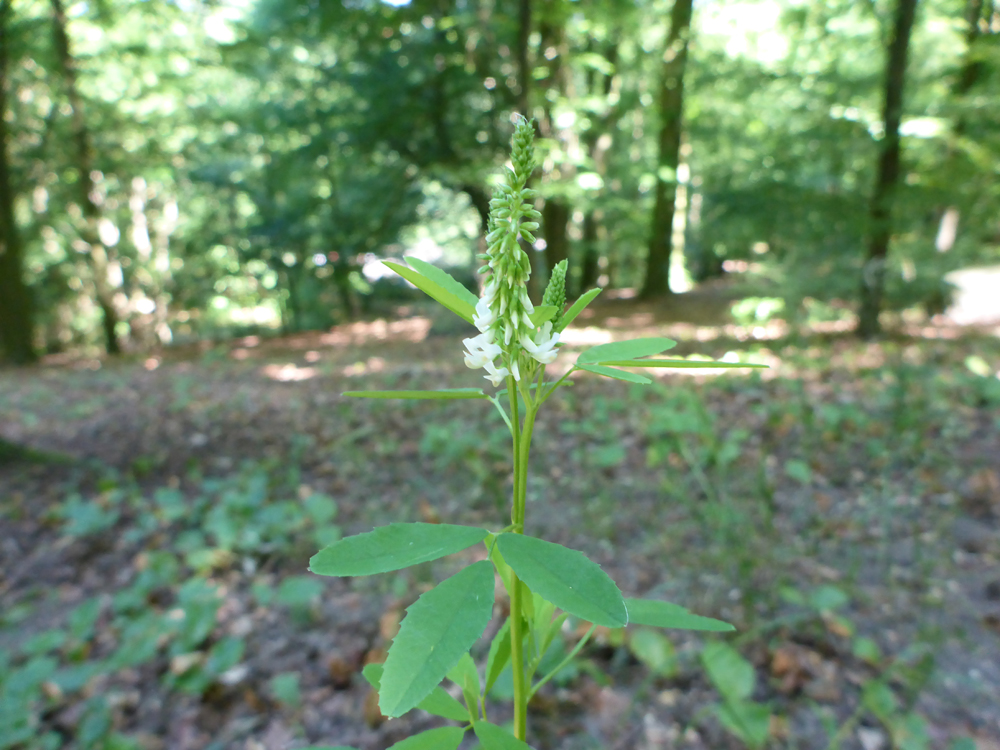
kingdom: Plantae
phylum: Tracheophyta
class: Magnoliopsida
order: Fabales
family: Fabaceae
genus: Melilotus
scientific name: Melilotus albus
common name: White melilot
